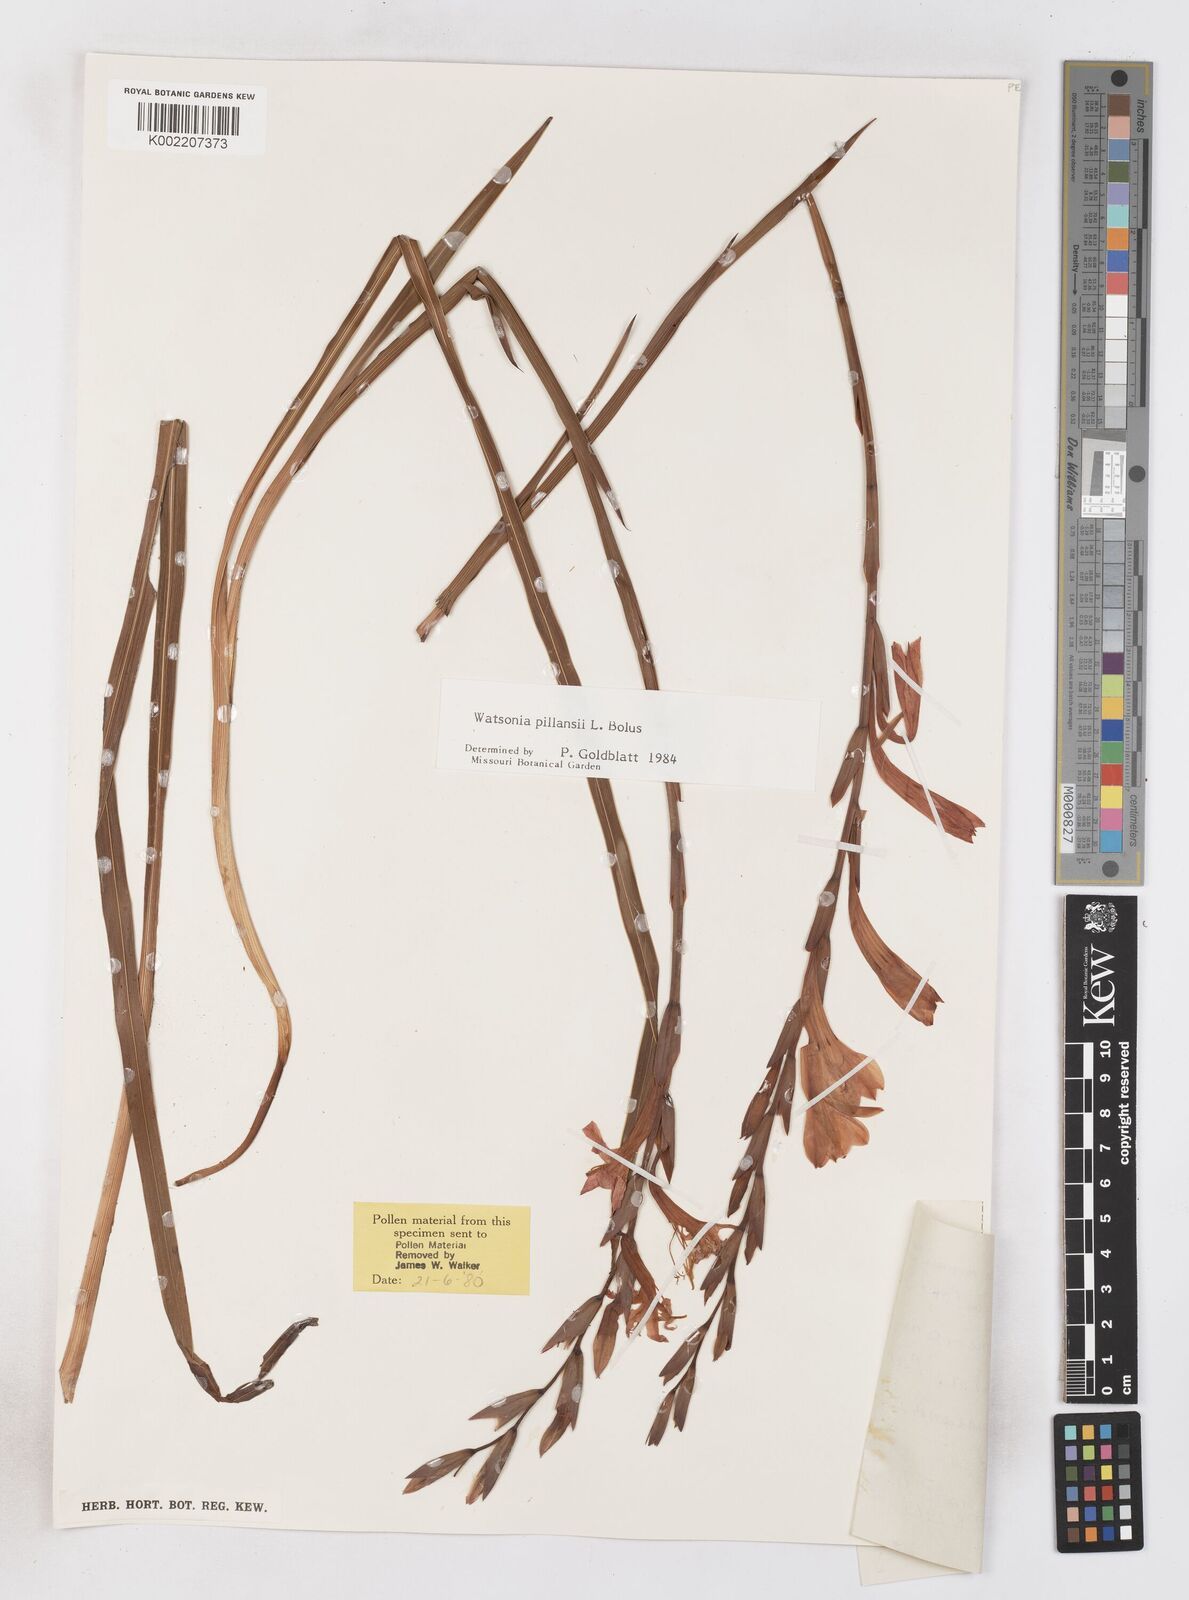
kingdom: Plantae
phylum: Tracheophyta
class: Liliopsida
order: Asparagales
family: Iridaceae
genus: Watsonia
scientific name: Watsonia pillansii
